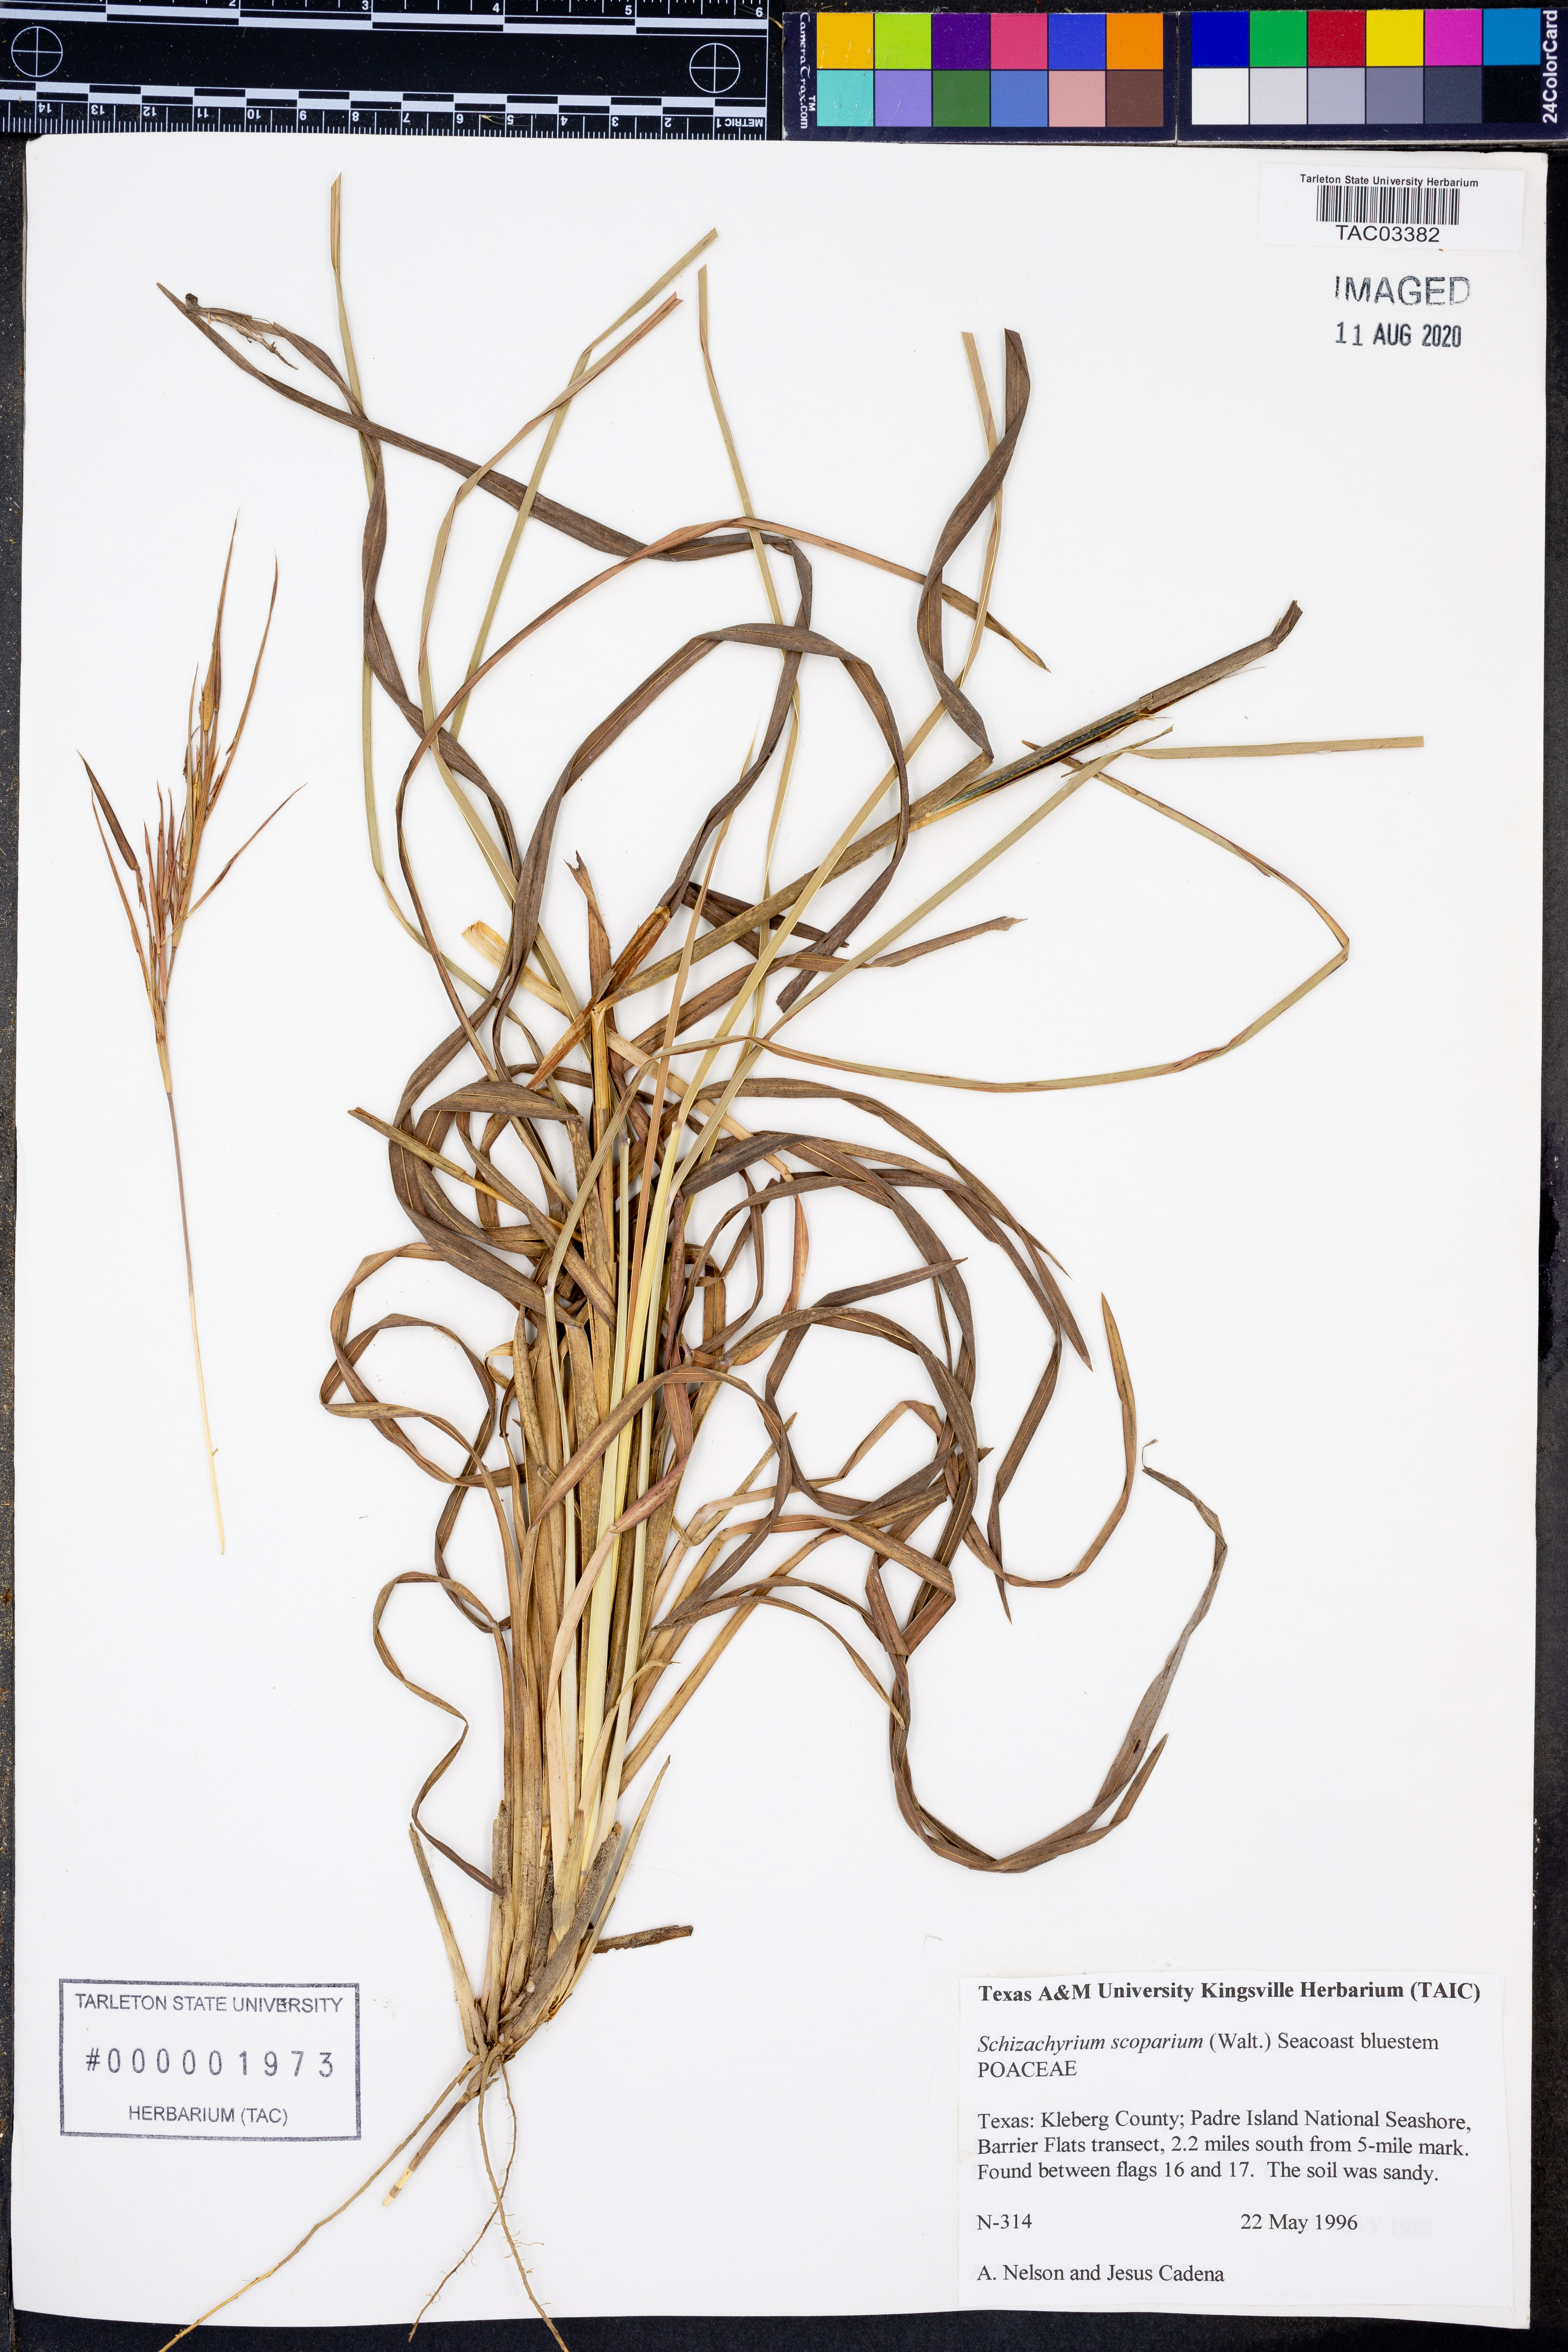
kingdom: Plantae
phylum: Tracheophyta
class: Liliopsida
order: Poales
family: Poaceae
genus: Schizachyrium
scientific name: Schizachyrium scoparium
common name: Little bluestem
